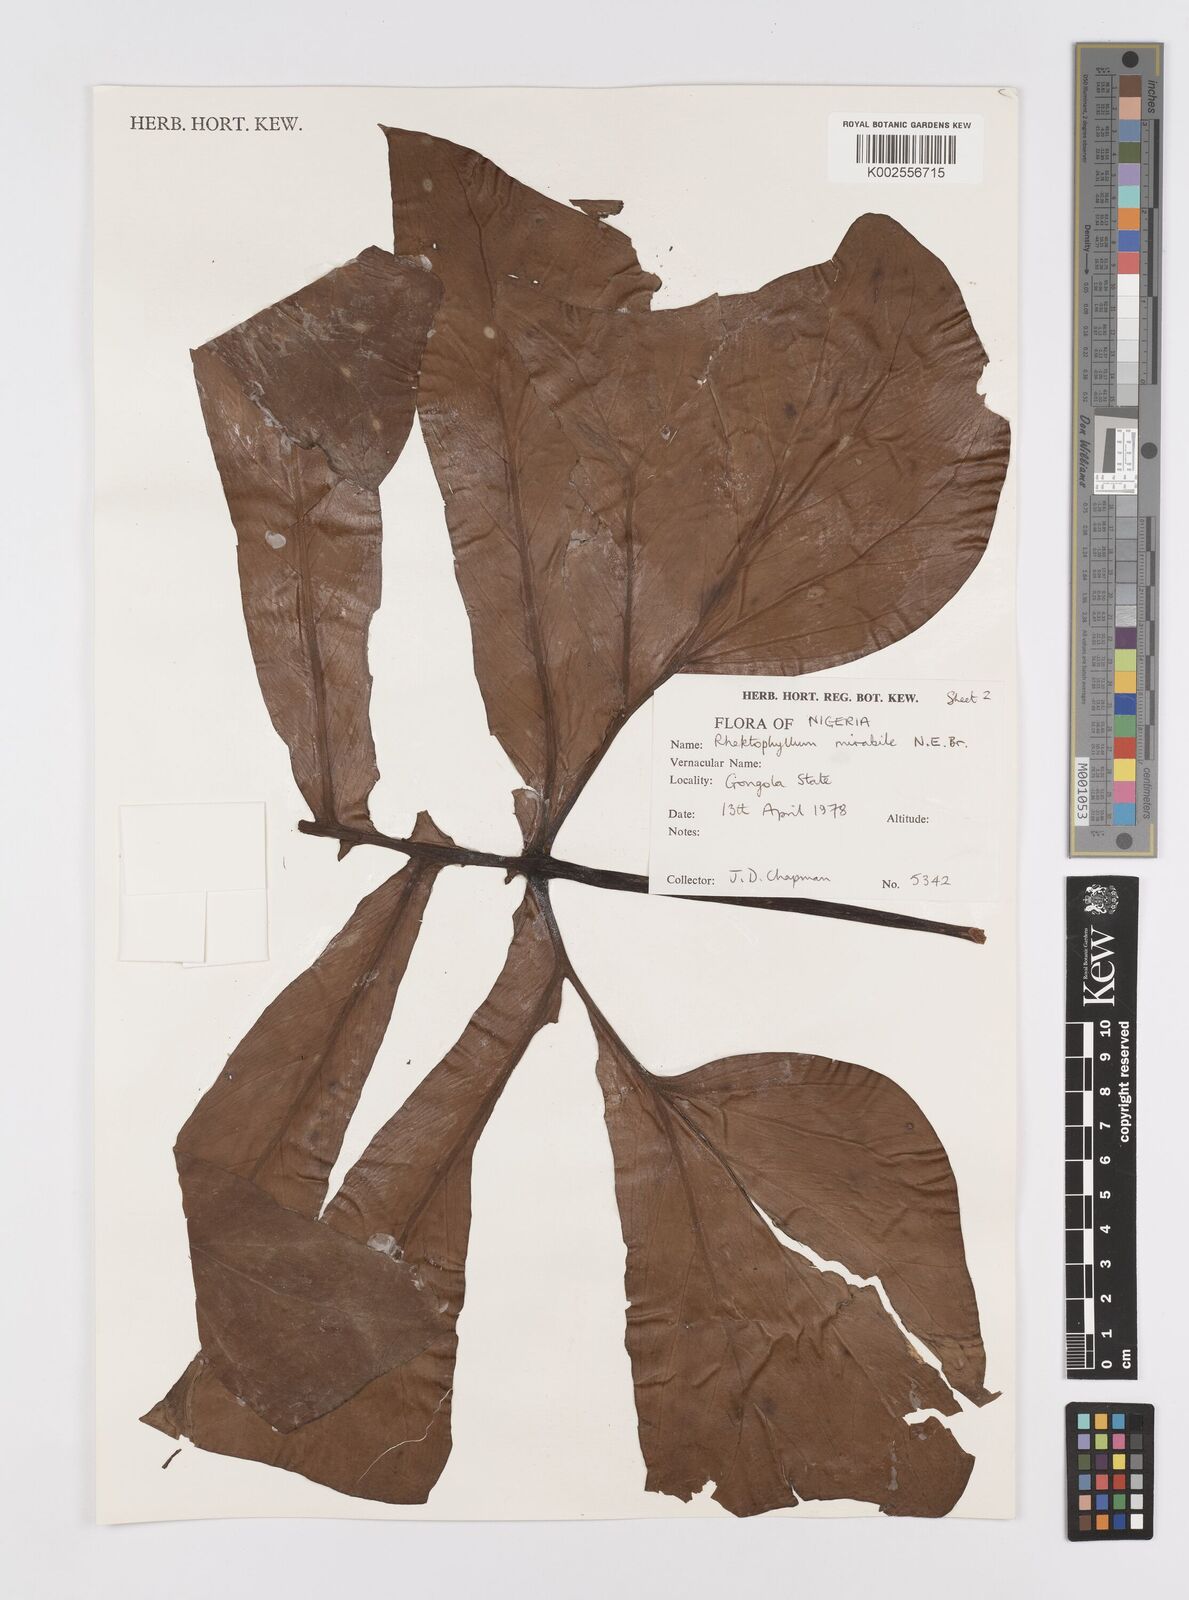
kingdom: Plantae
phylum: Tracheophyta
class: Liliopsida
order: Alismatales
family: Araceae
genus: Cercestis
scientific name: Cercestis mirabilis
